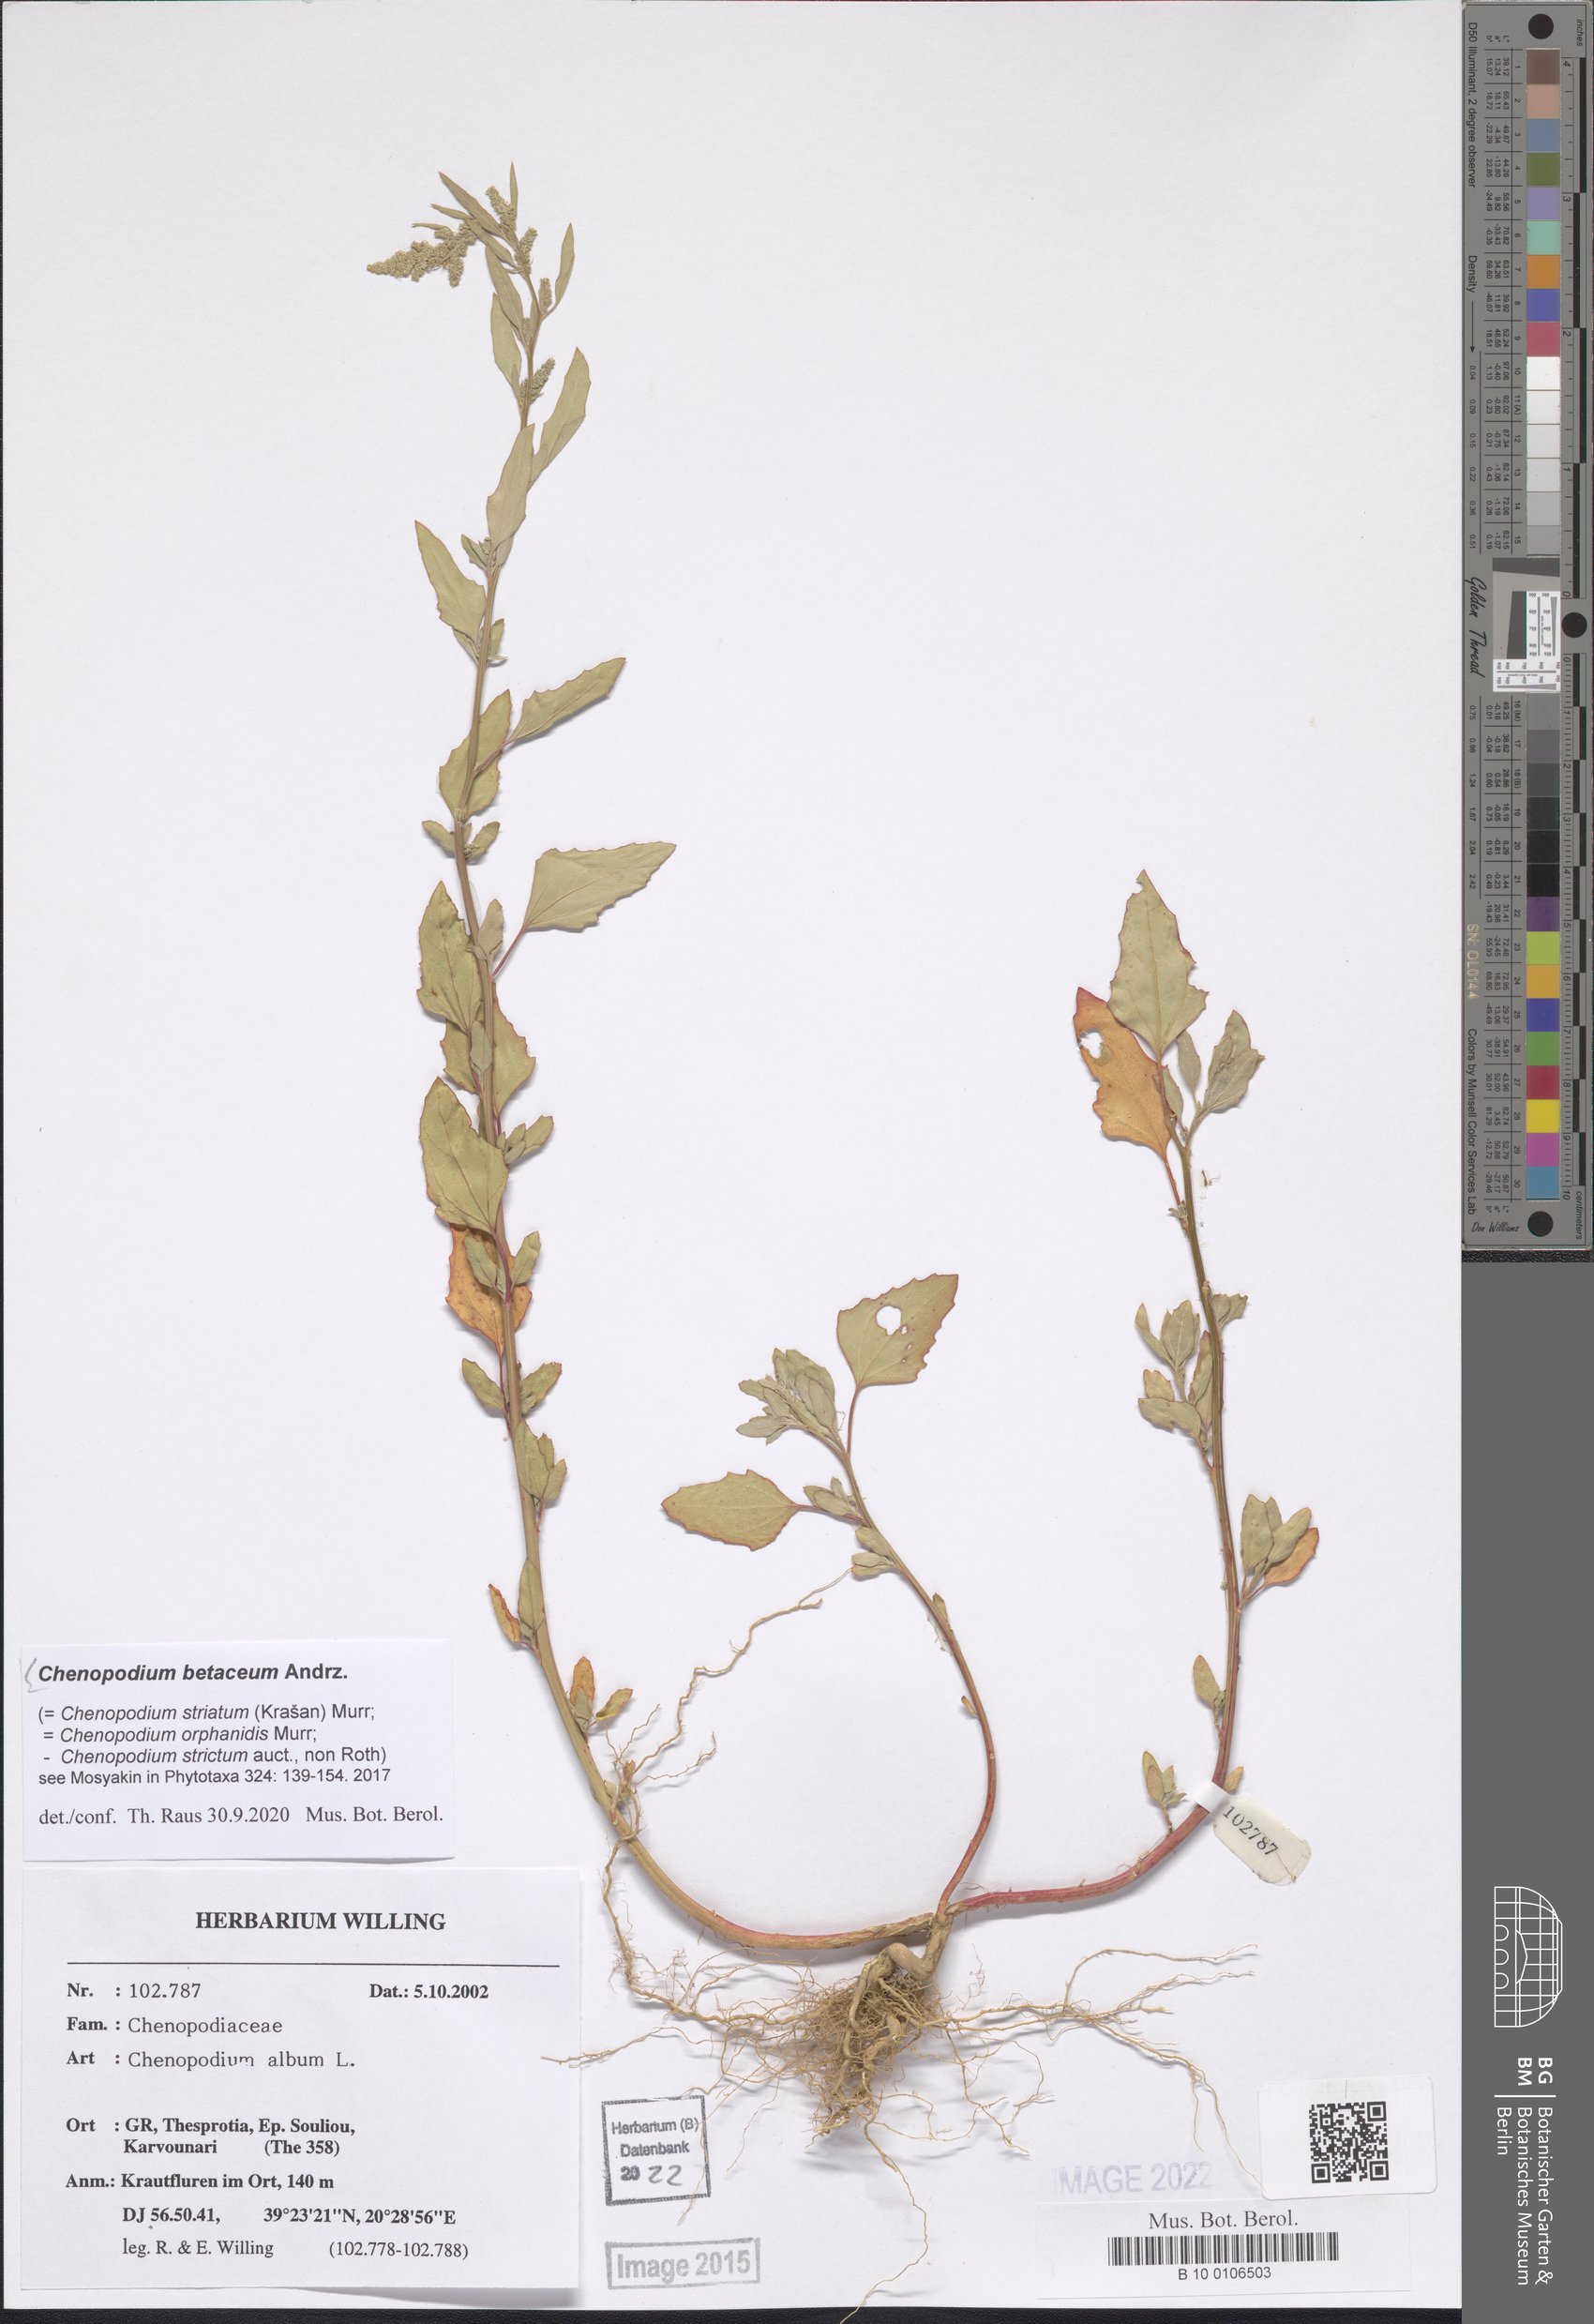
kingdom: Plantae
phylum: Tracheophyta
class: Magnoliopsida
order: Caryophyllales
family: Amaranthaceae
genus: Chenopodium
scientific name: Chenopodium betaceum
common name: Striped goosefoot
